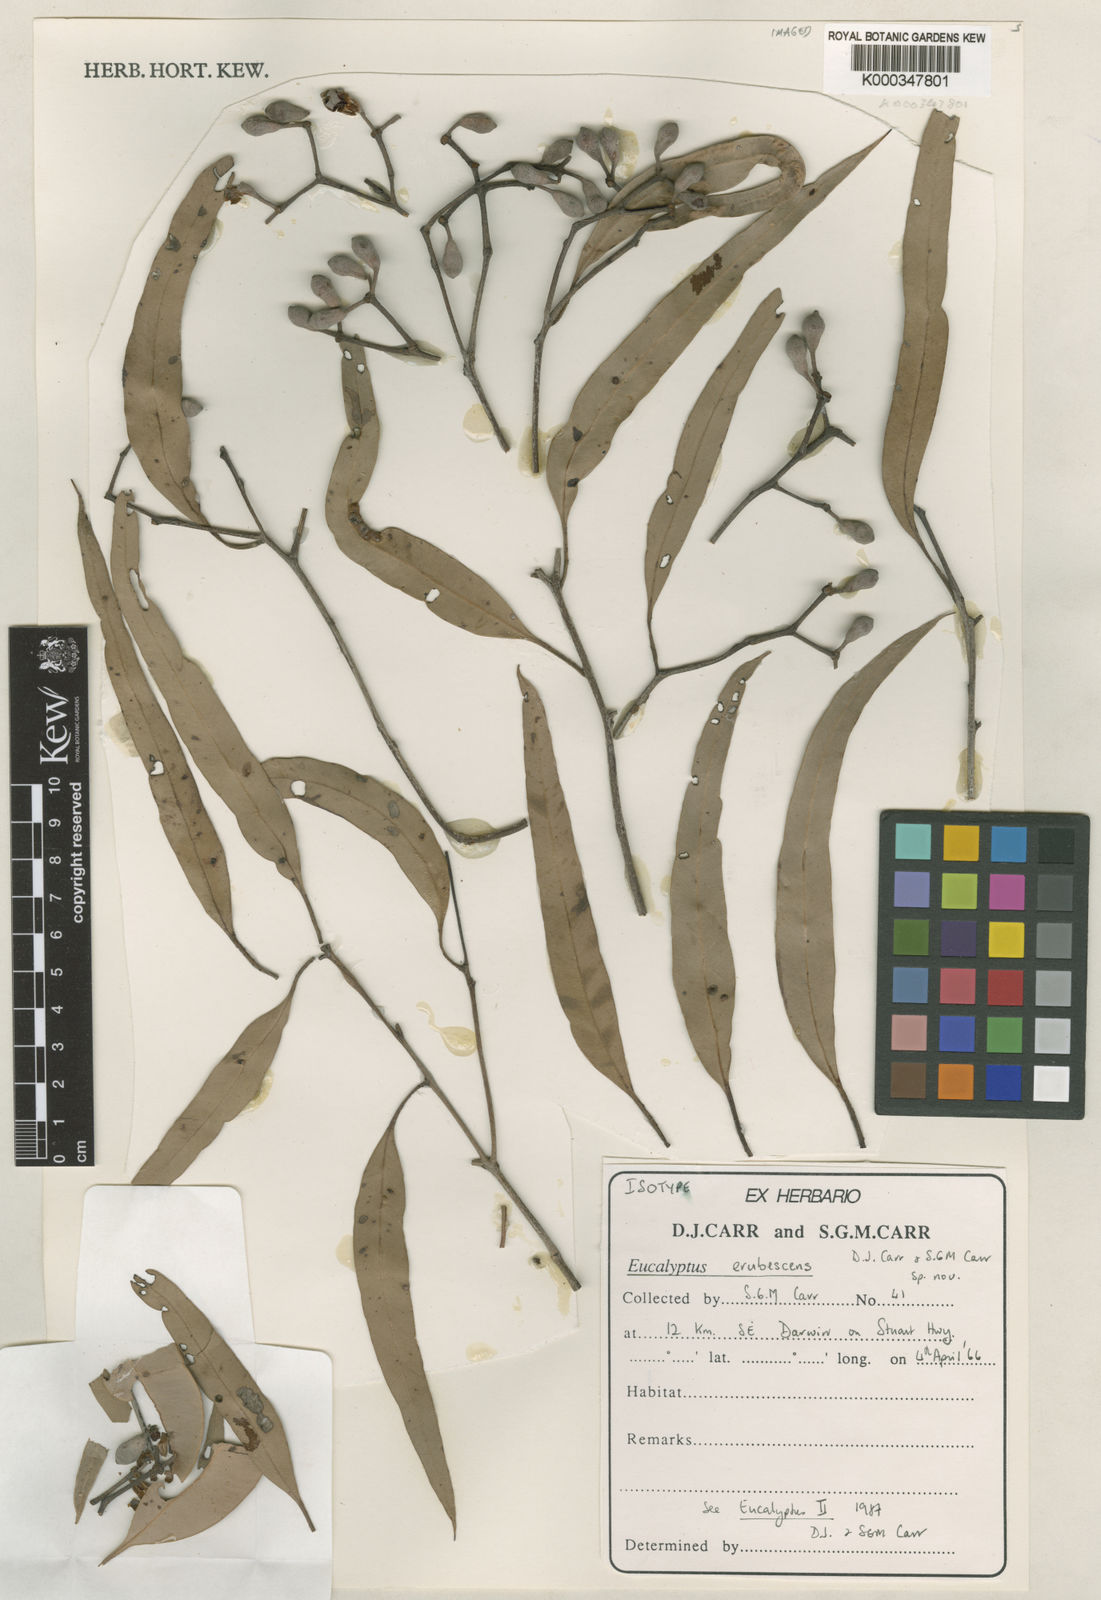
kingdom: Plantae
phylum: Tracheophyta
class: Magnoliopsida
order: Myrtales
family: Myrtaceae
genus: Corymbia
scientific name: Corymbia polycarpa
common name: Long-fruited-bloodwood
